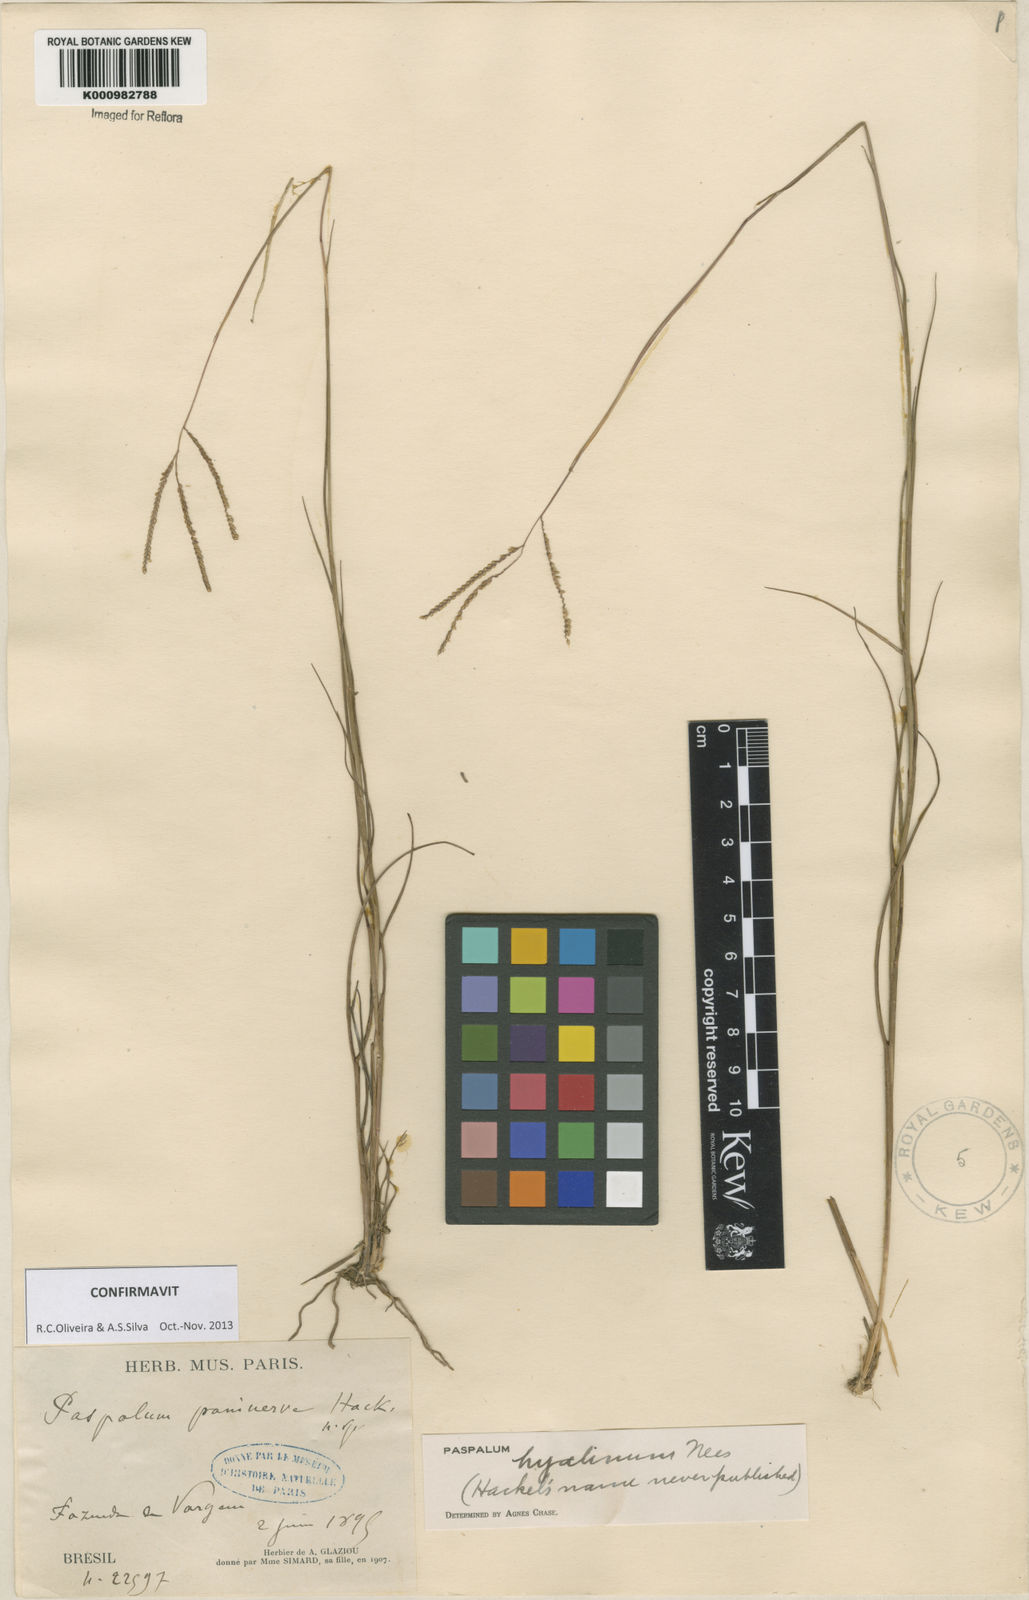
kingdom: Plantae
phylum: Tracheophyta
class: Liliopsida
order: Poales
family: Poaceae
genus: Paspalum
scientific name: Paspalum hyalinum
